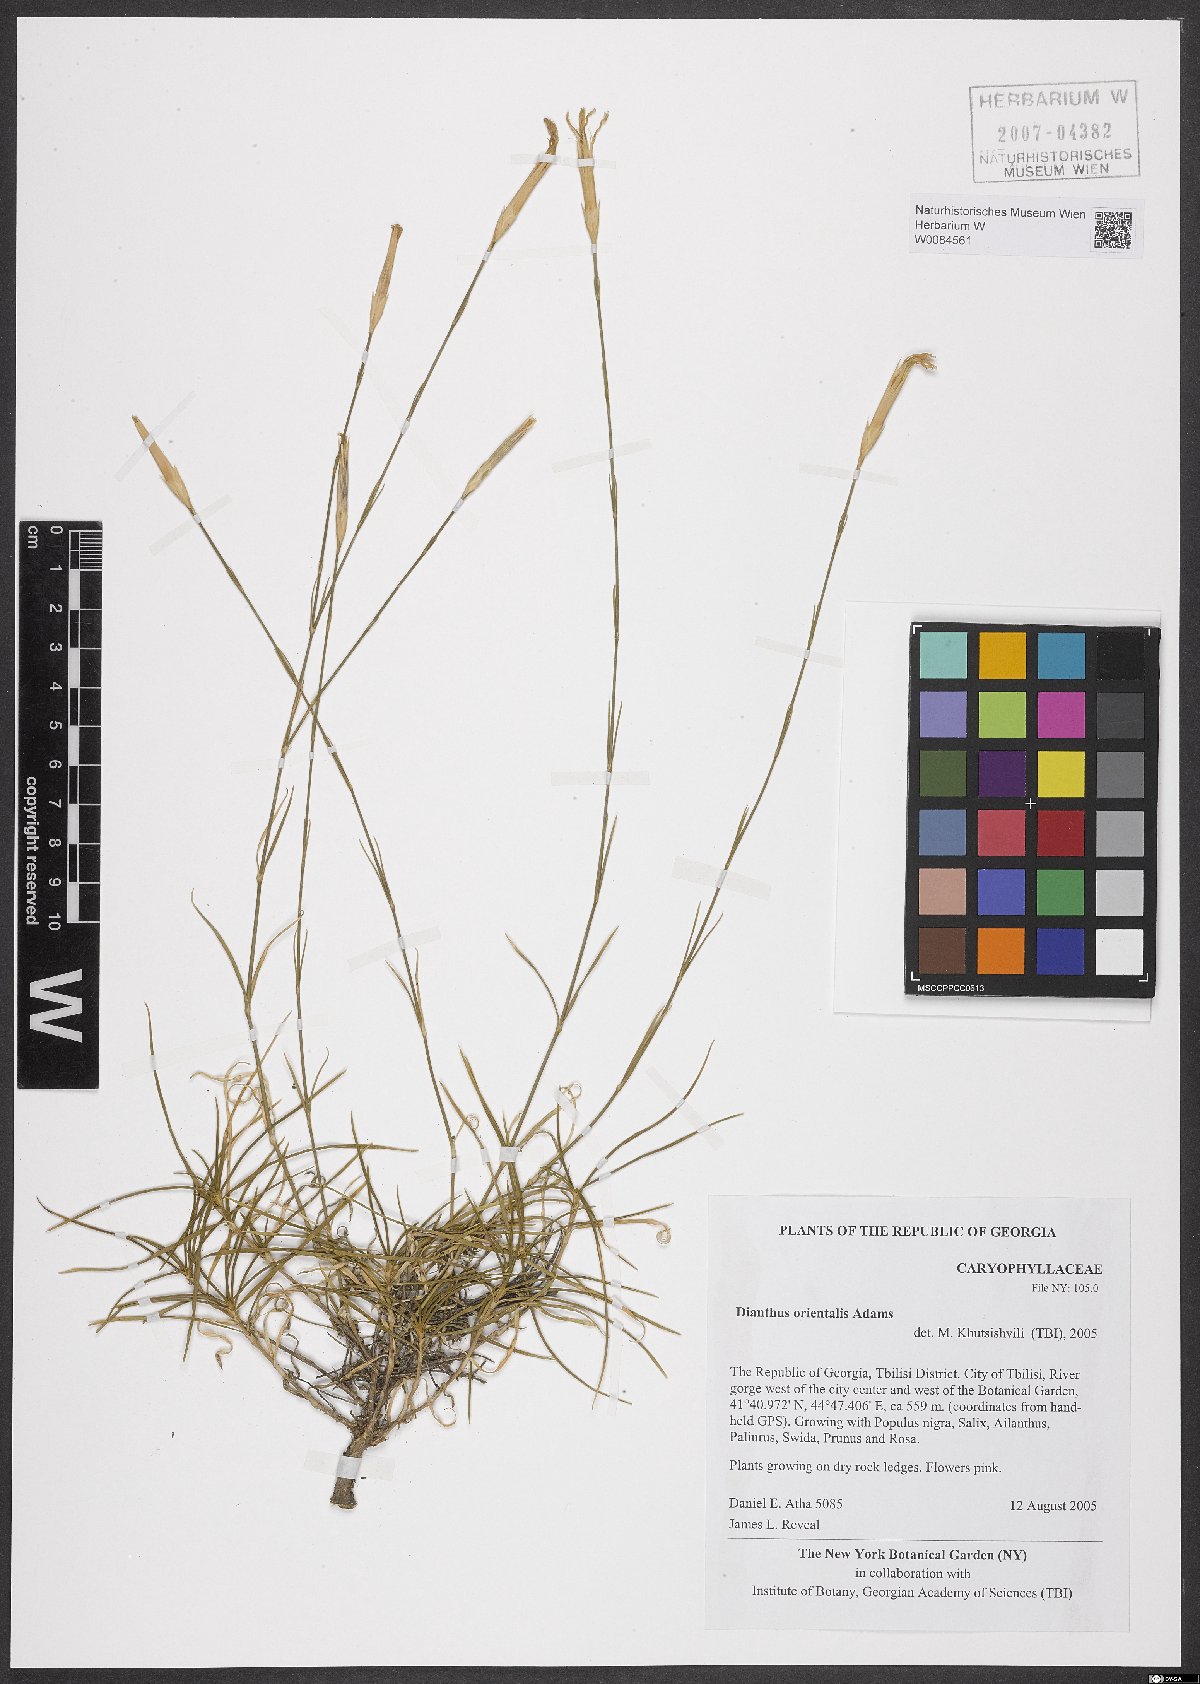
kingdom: Plantae
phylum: Tracheophyta
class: Magnoliopsida
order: Caryophyllales
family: Caryophyllaceae
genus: Dianthus
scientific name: Dianthus orientalis
